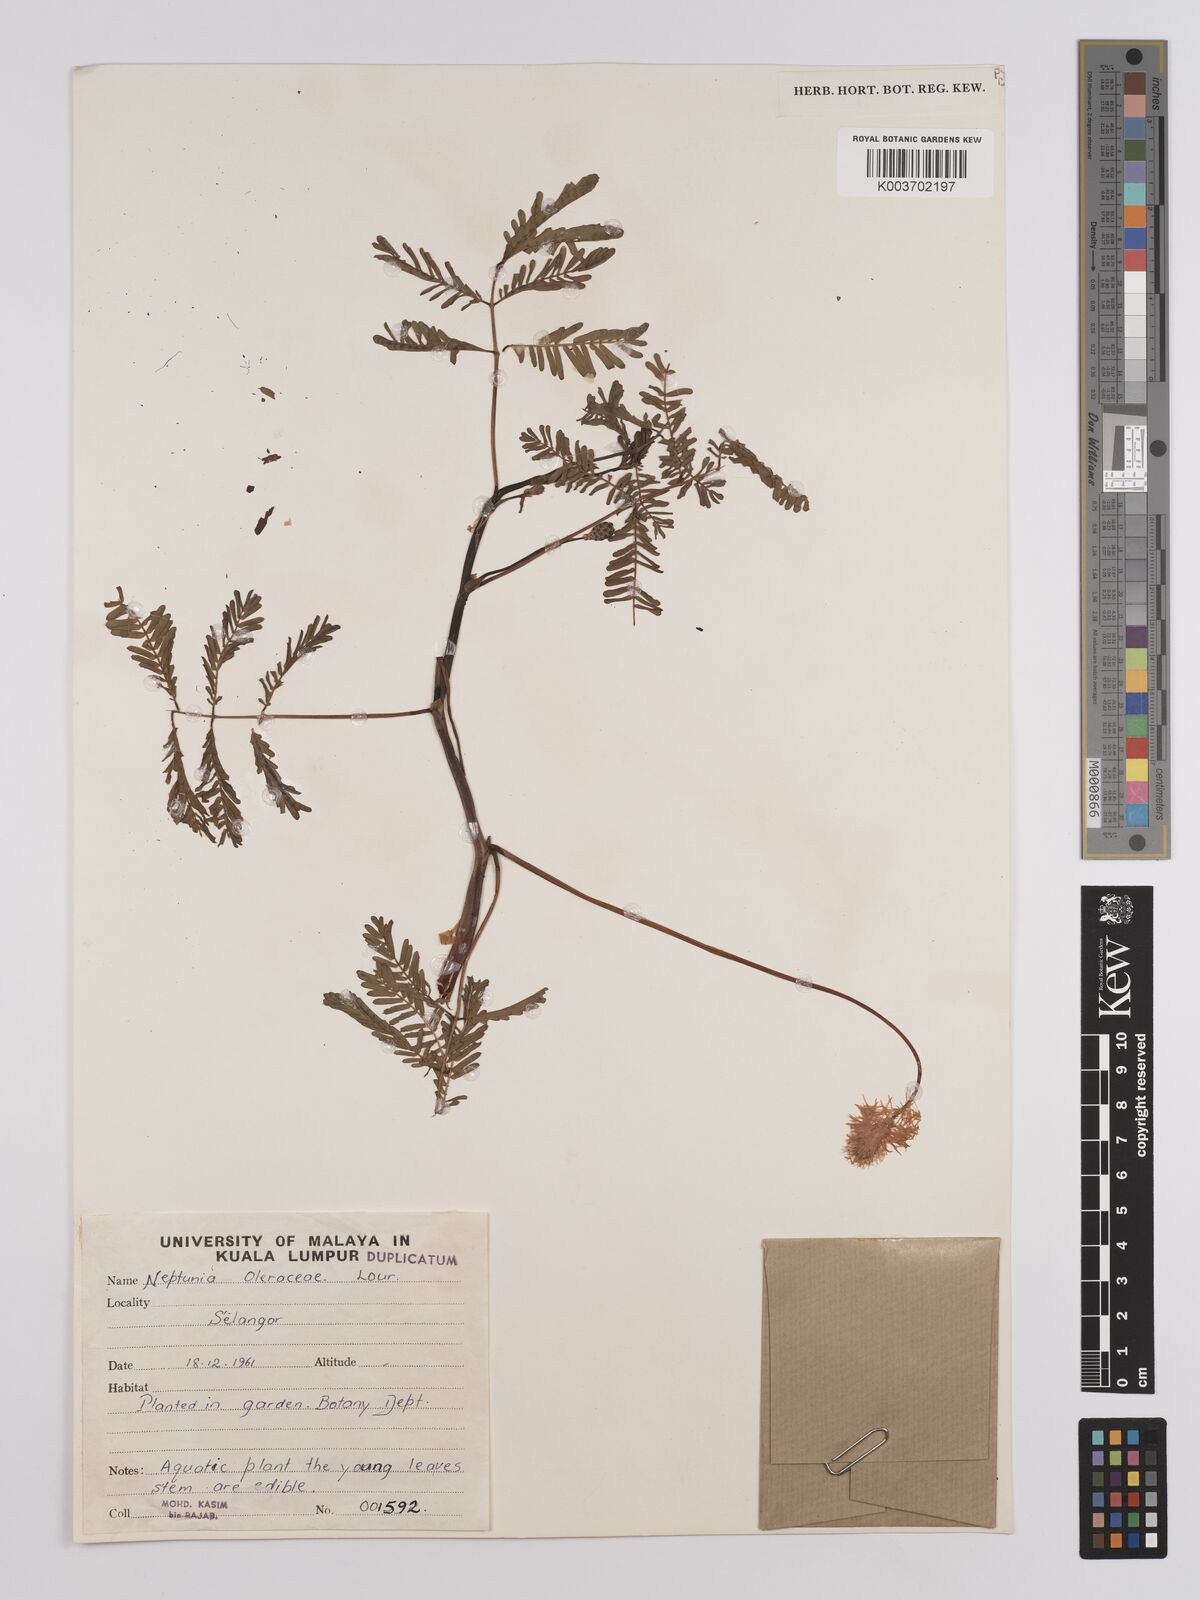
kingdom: Plantae
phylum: Tracheophyta
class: Magnoliopsida
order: Fabales
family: Fabaceae
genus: Neptunia
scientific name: Neptunia prostrata
